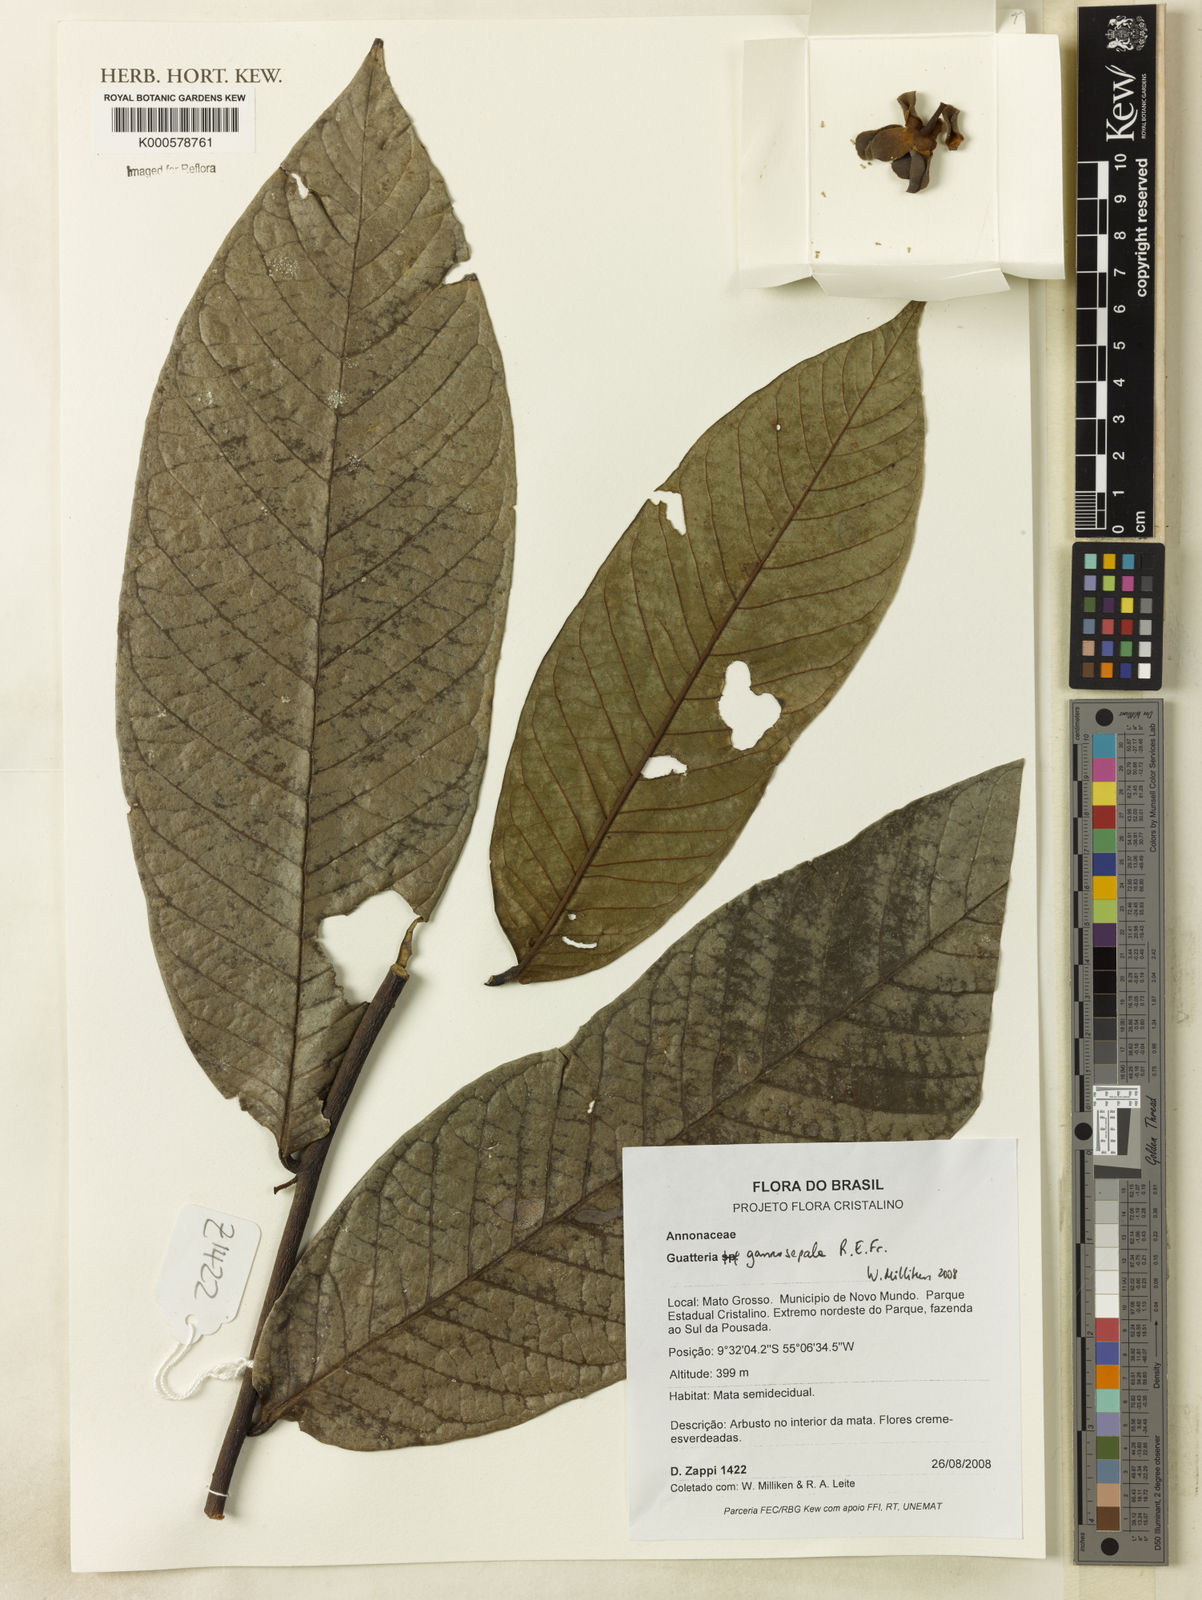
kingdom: Plantae
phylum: Tracheophyta
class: Magnoliopsida
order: Magnoliales
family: Annonaceae
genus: Guatteria
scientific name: Guatteria gamosepala
